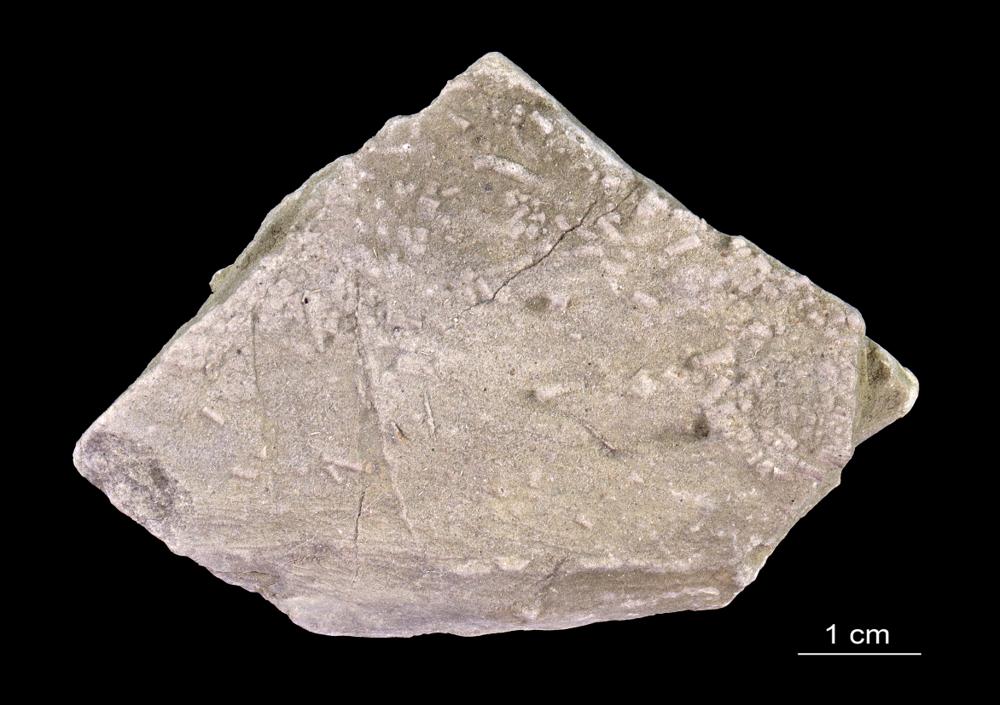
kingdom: Animalia
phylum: Annelida
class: Polychaeta
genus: Volborthella
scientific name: Volborthella tenuis
